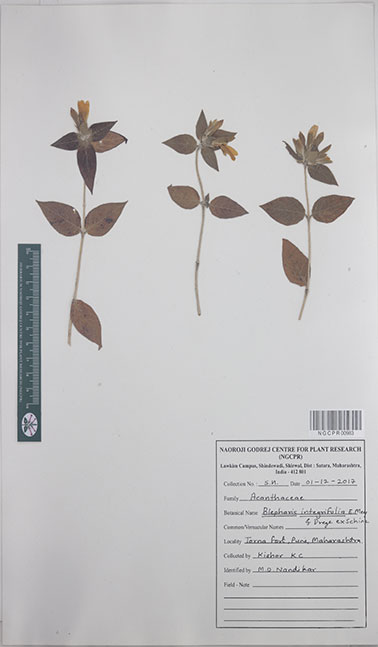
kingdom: Plantae
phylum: Tracheophyta
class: Magnoliopsida
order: Lamiales
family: Acanthaceae
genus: Blepharis
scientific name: Blepharis integrifolia
